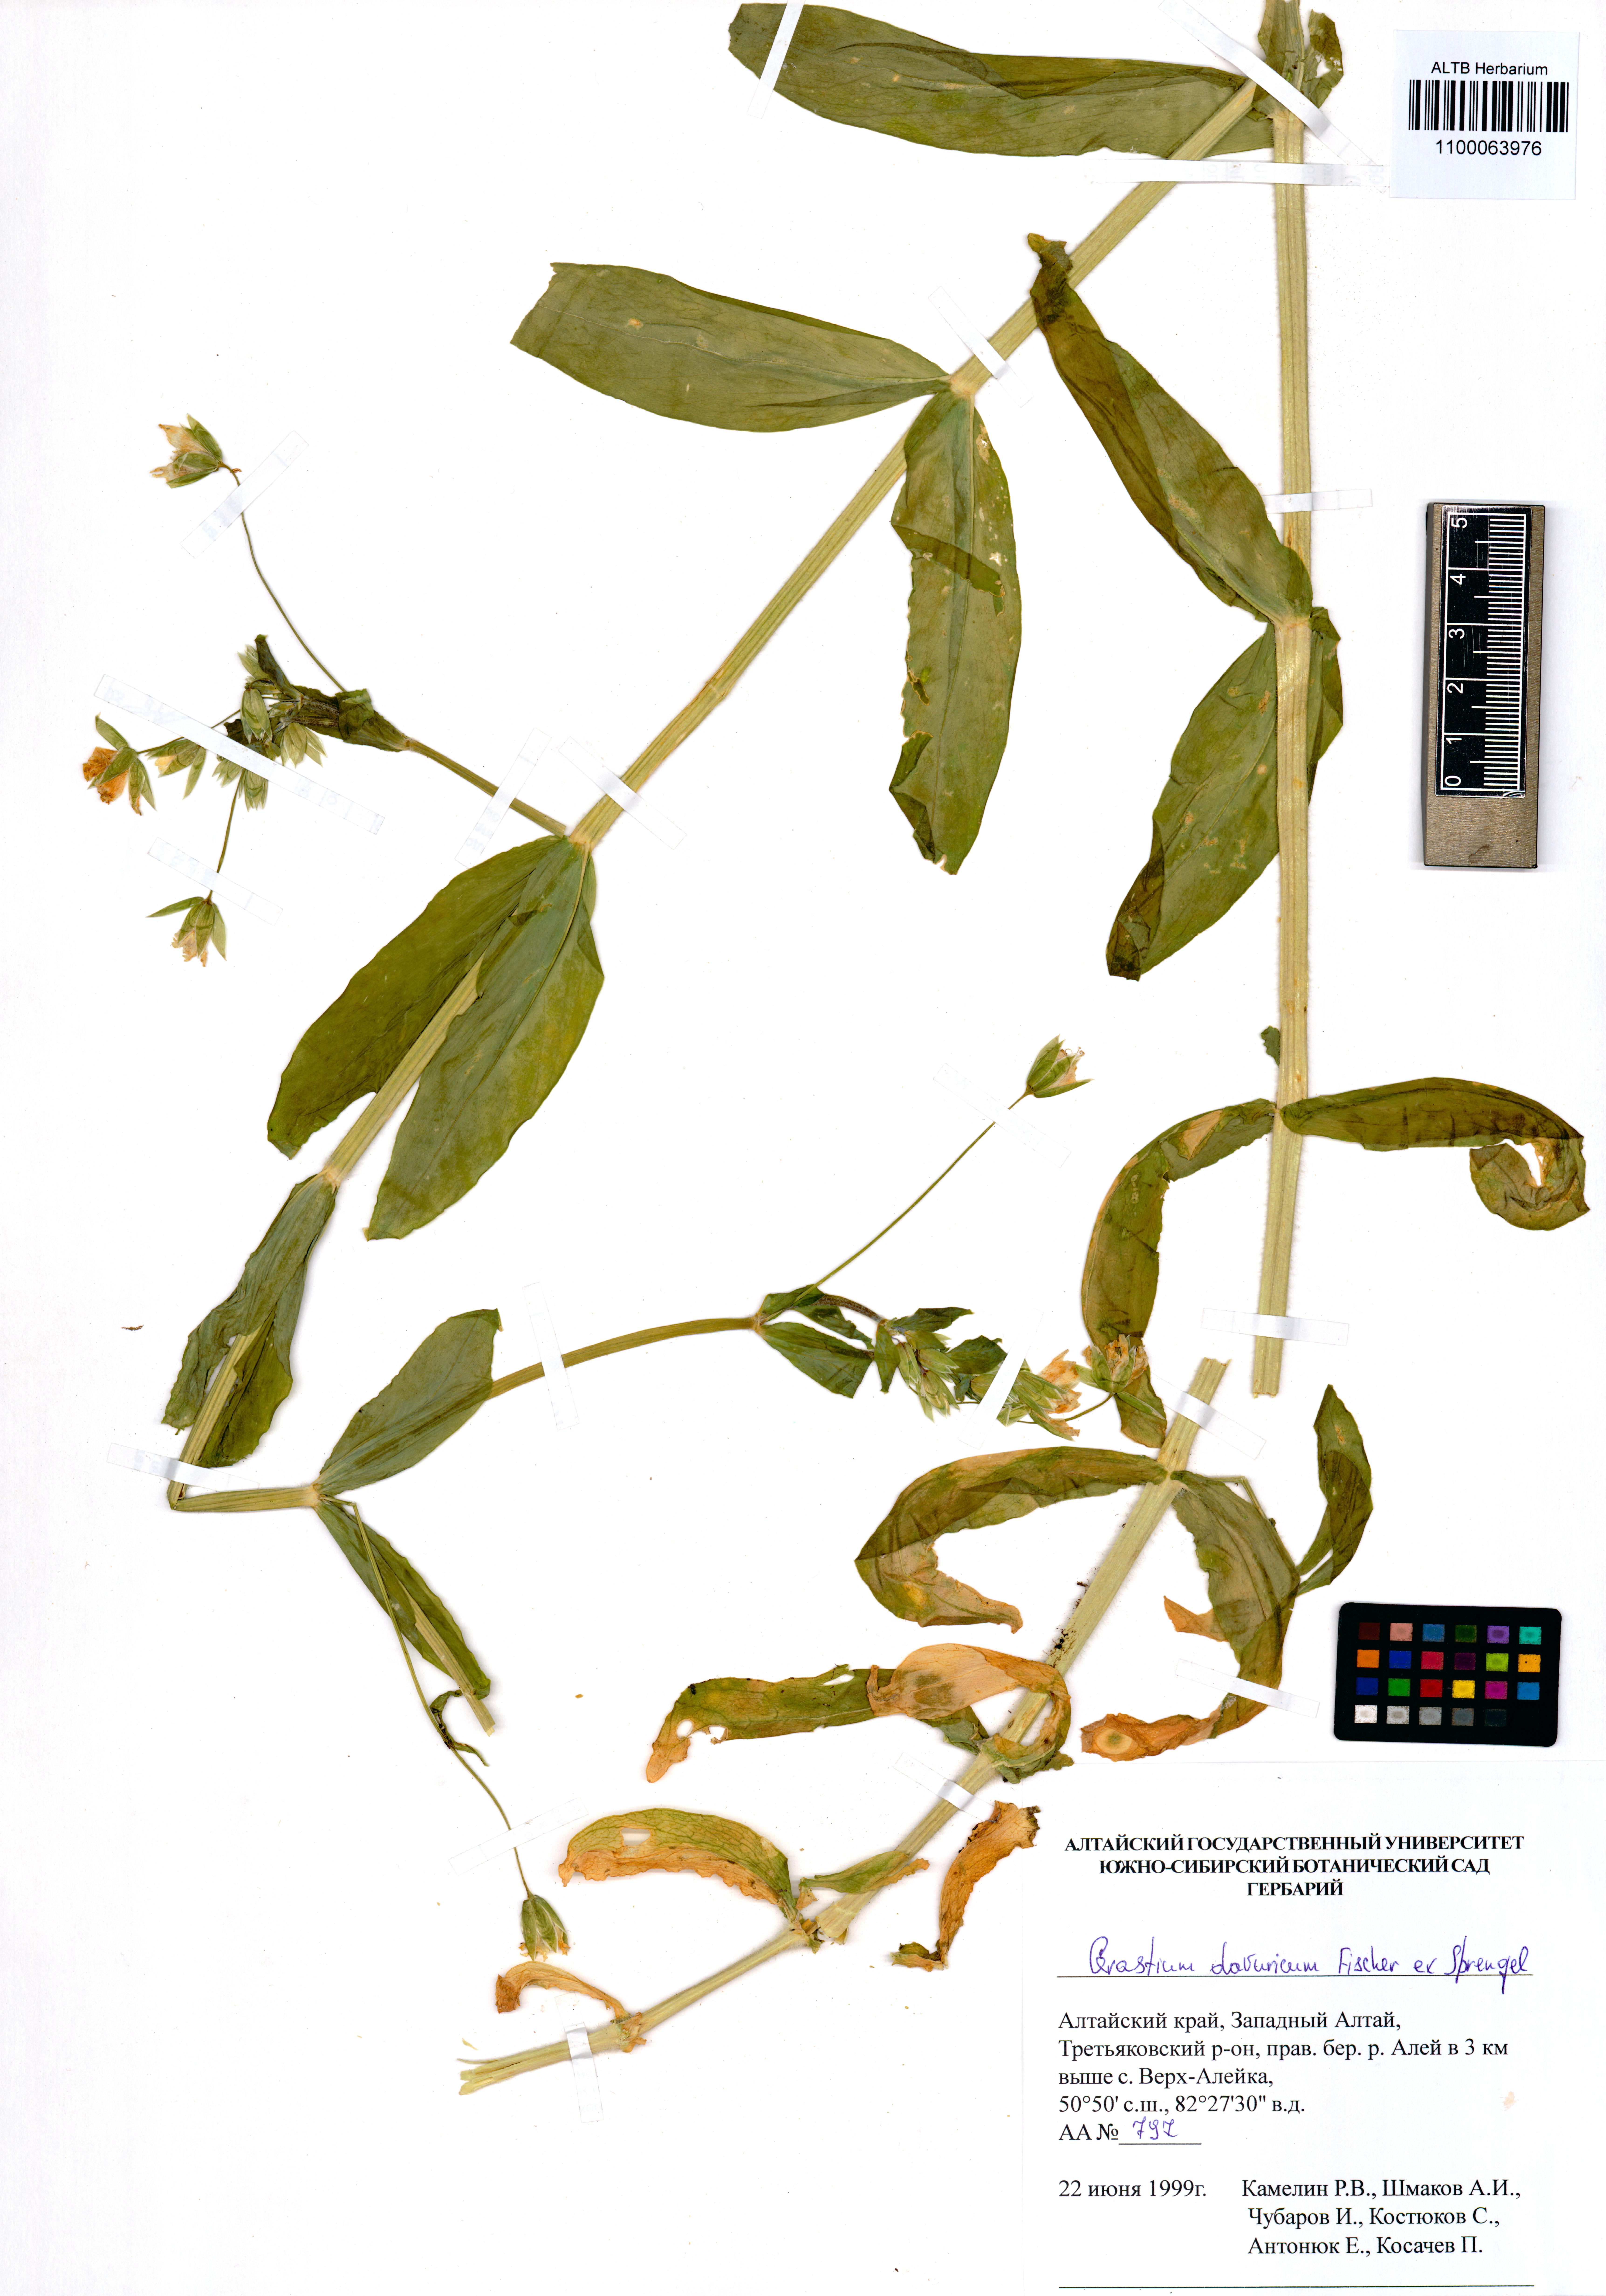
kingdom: Plantae
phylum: Tracheophyta
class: Magnoliopsida
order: Caryophyllales
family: Caryophyllaceae
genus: Dichodon
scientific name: Dichodon davuricum
